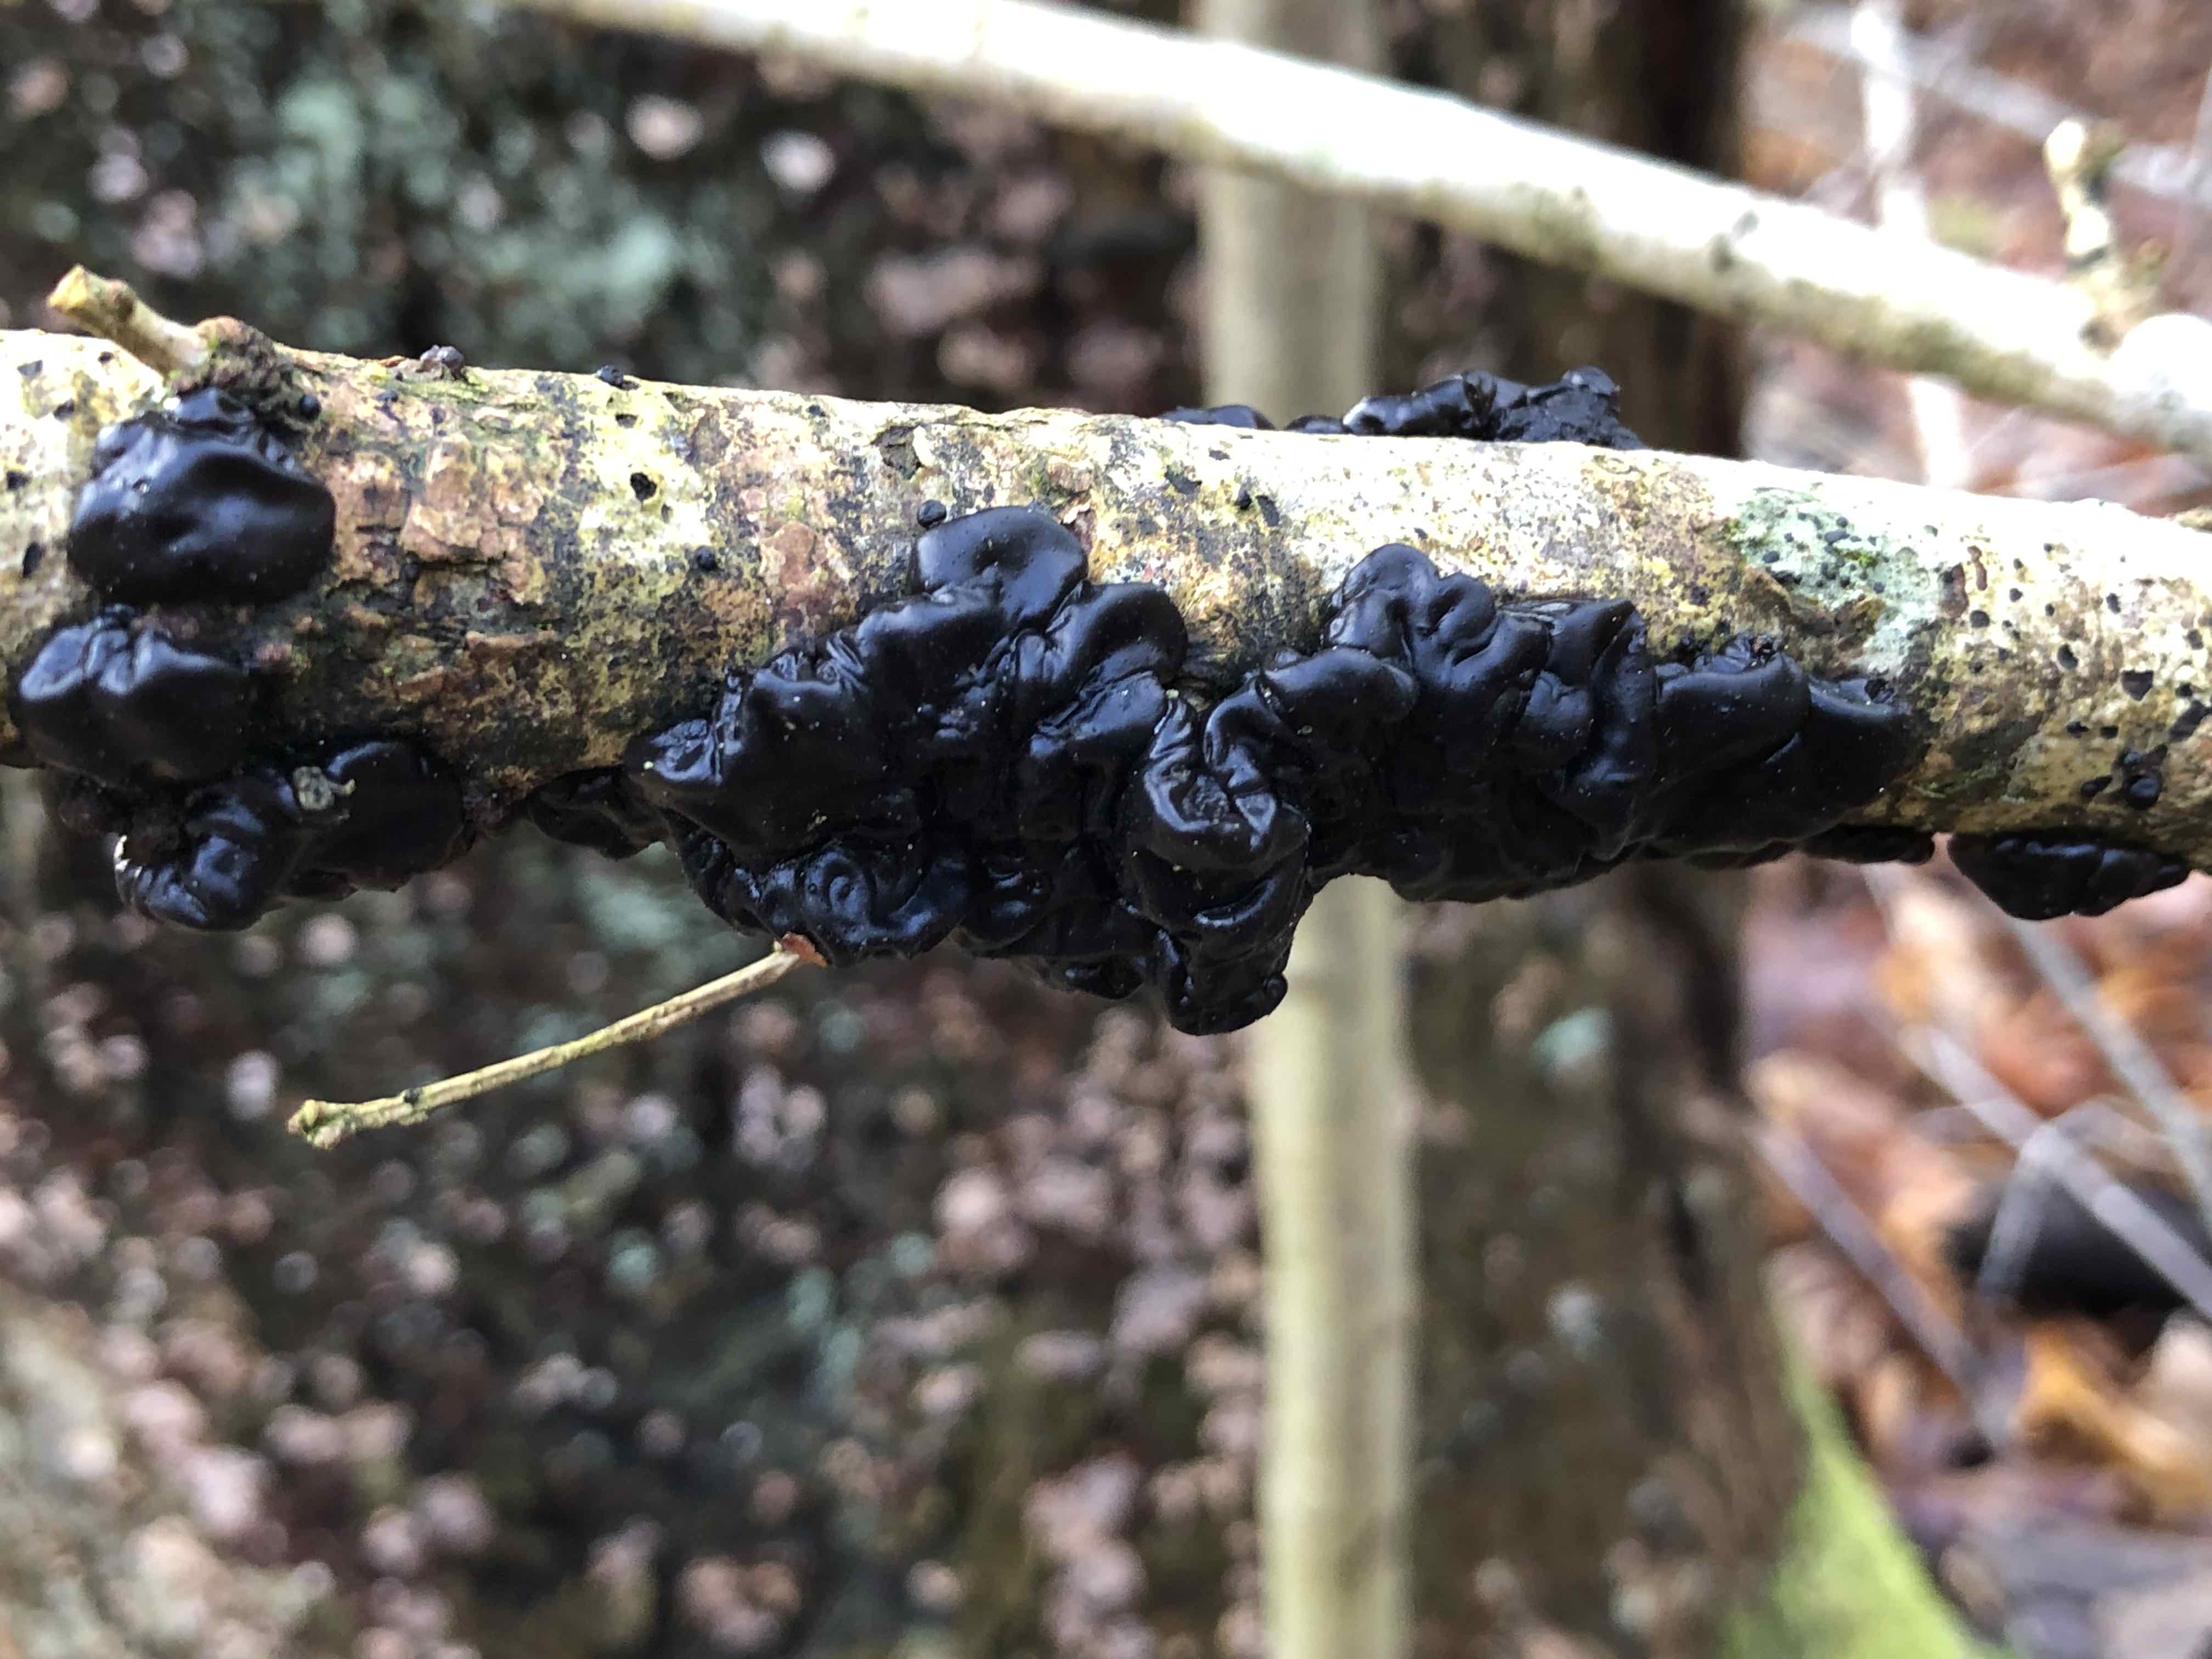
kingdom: Fungi
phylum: Basidiomycota
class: Agaricomycetes
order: Auriculariales
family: Auriculariaceae
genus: Exidia
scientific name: Exidia nigricans
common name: almindelig bævretop
